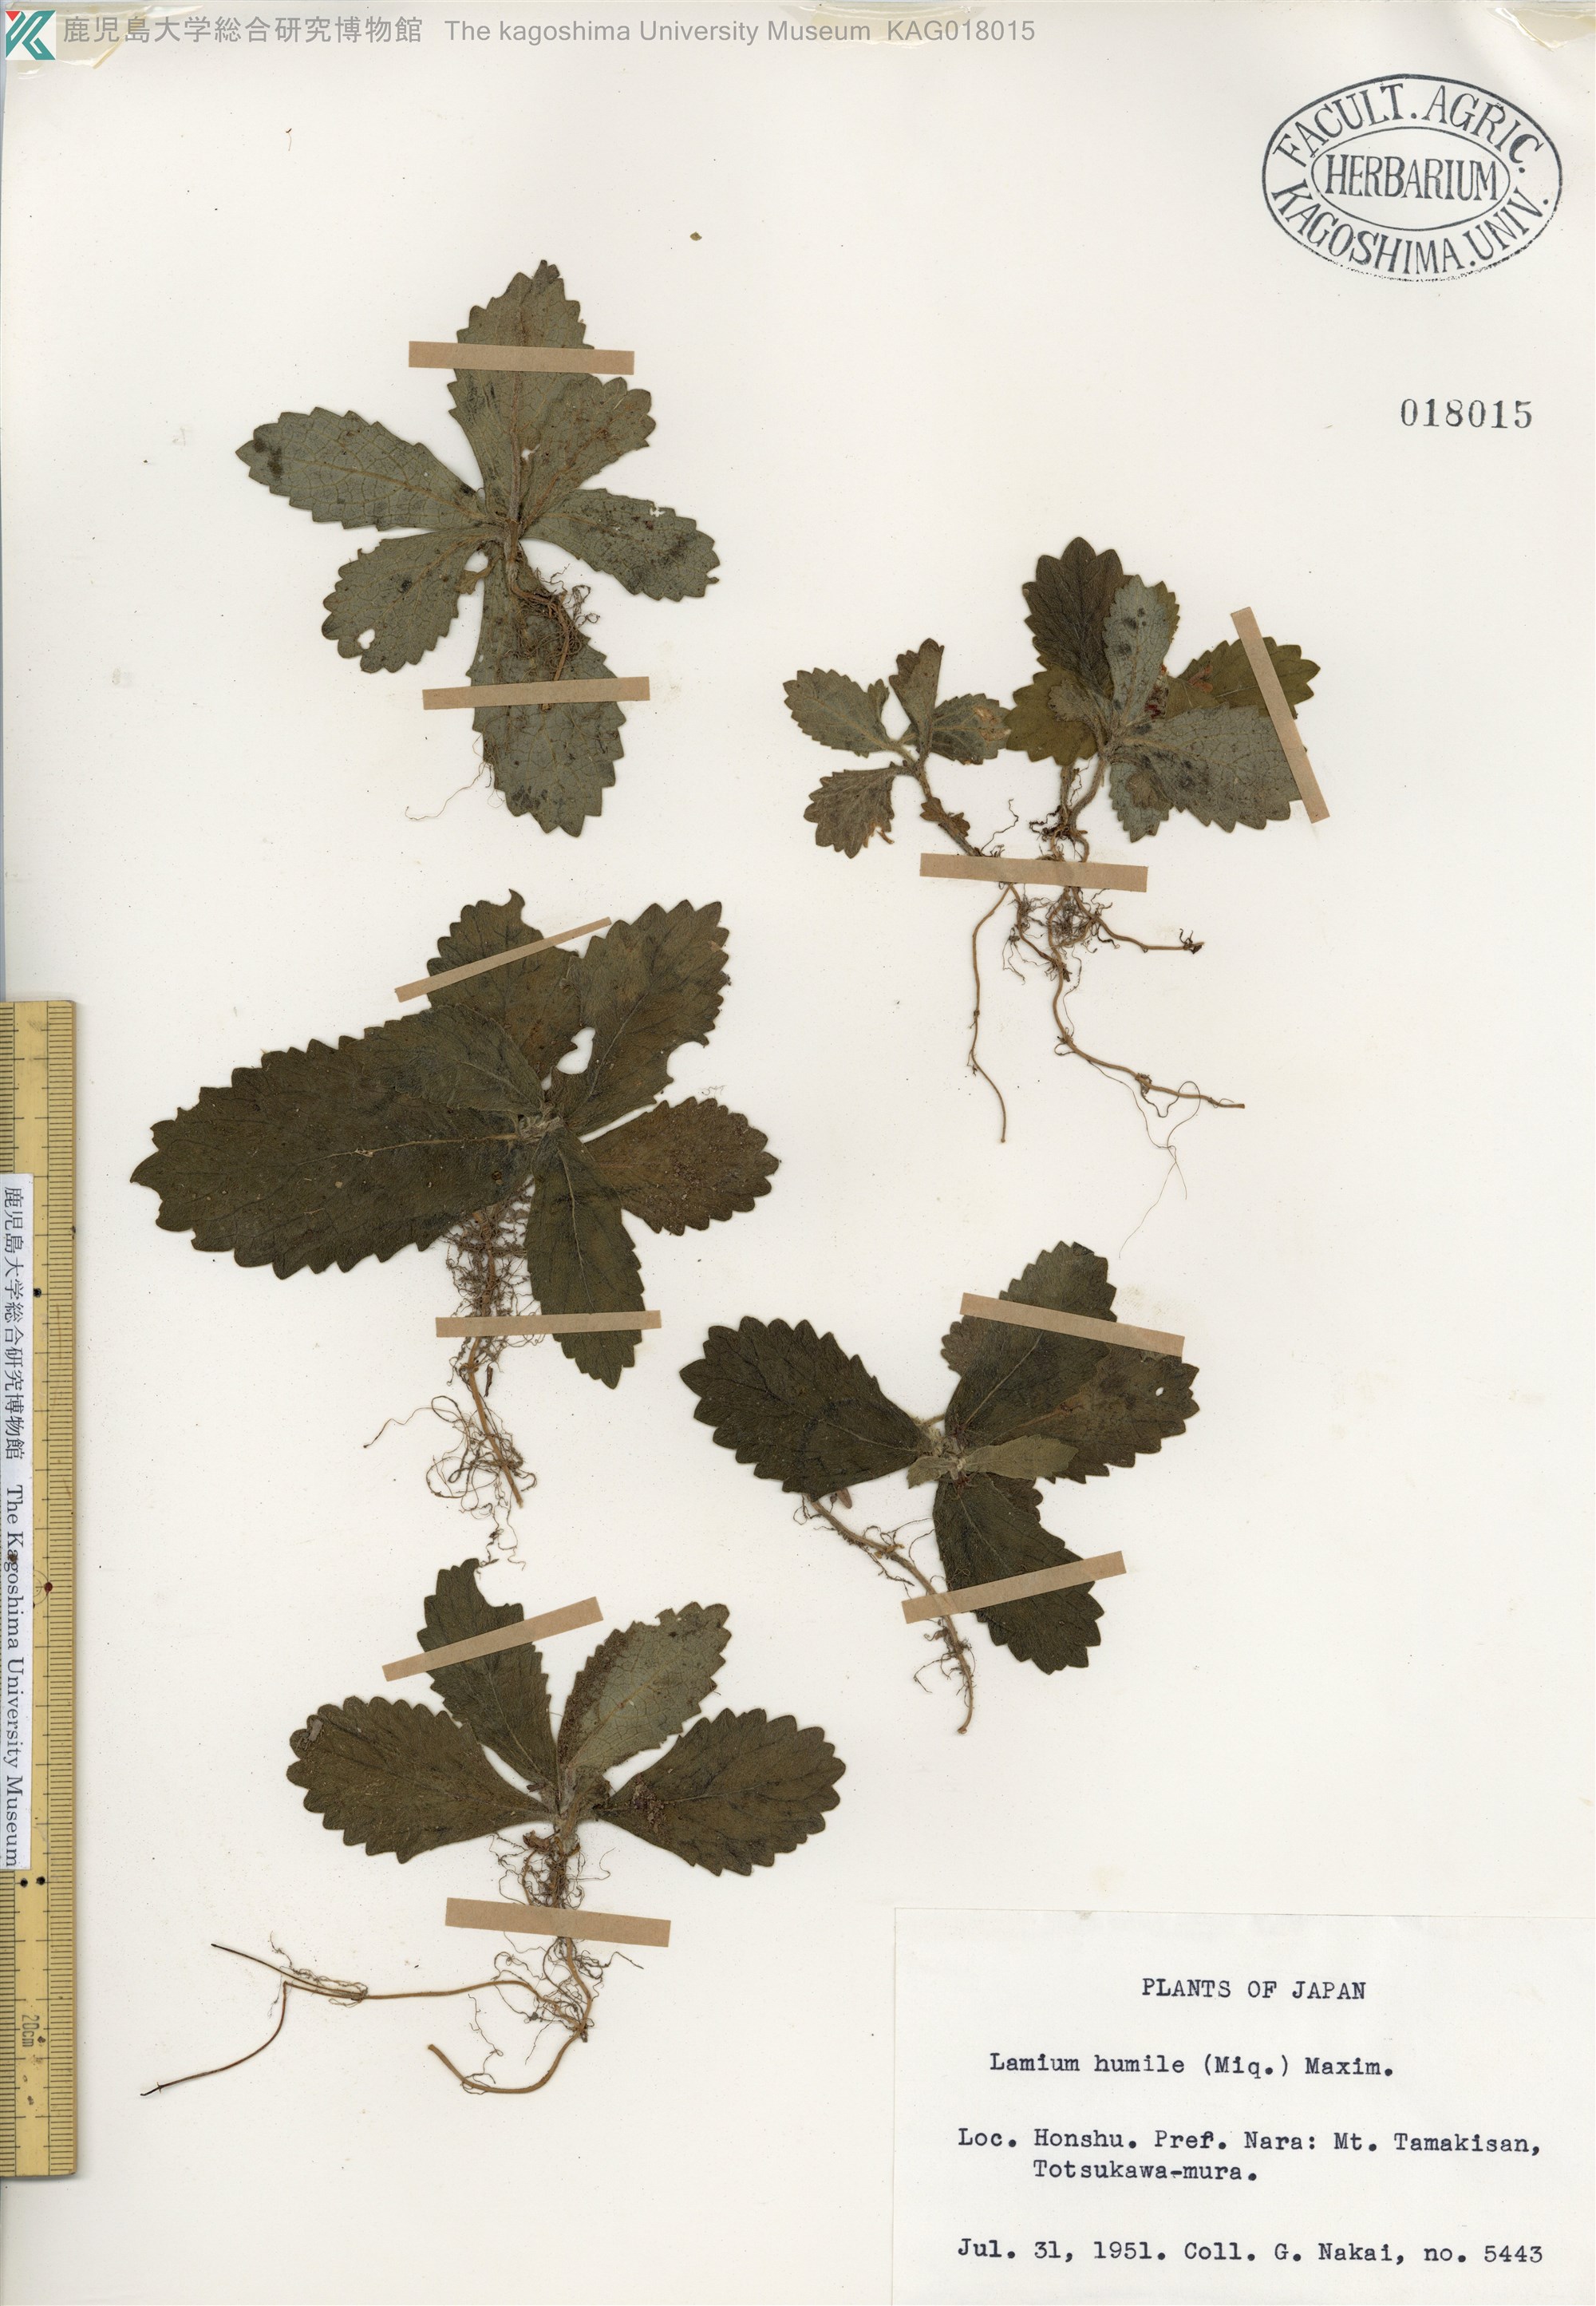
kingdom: Plantae
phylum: Tracheophyta
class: Magnoliopsida
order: Lamiales
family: Lamiaceae
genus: Ajugoides
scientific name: Ajugoides humilis
